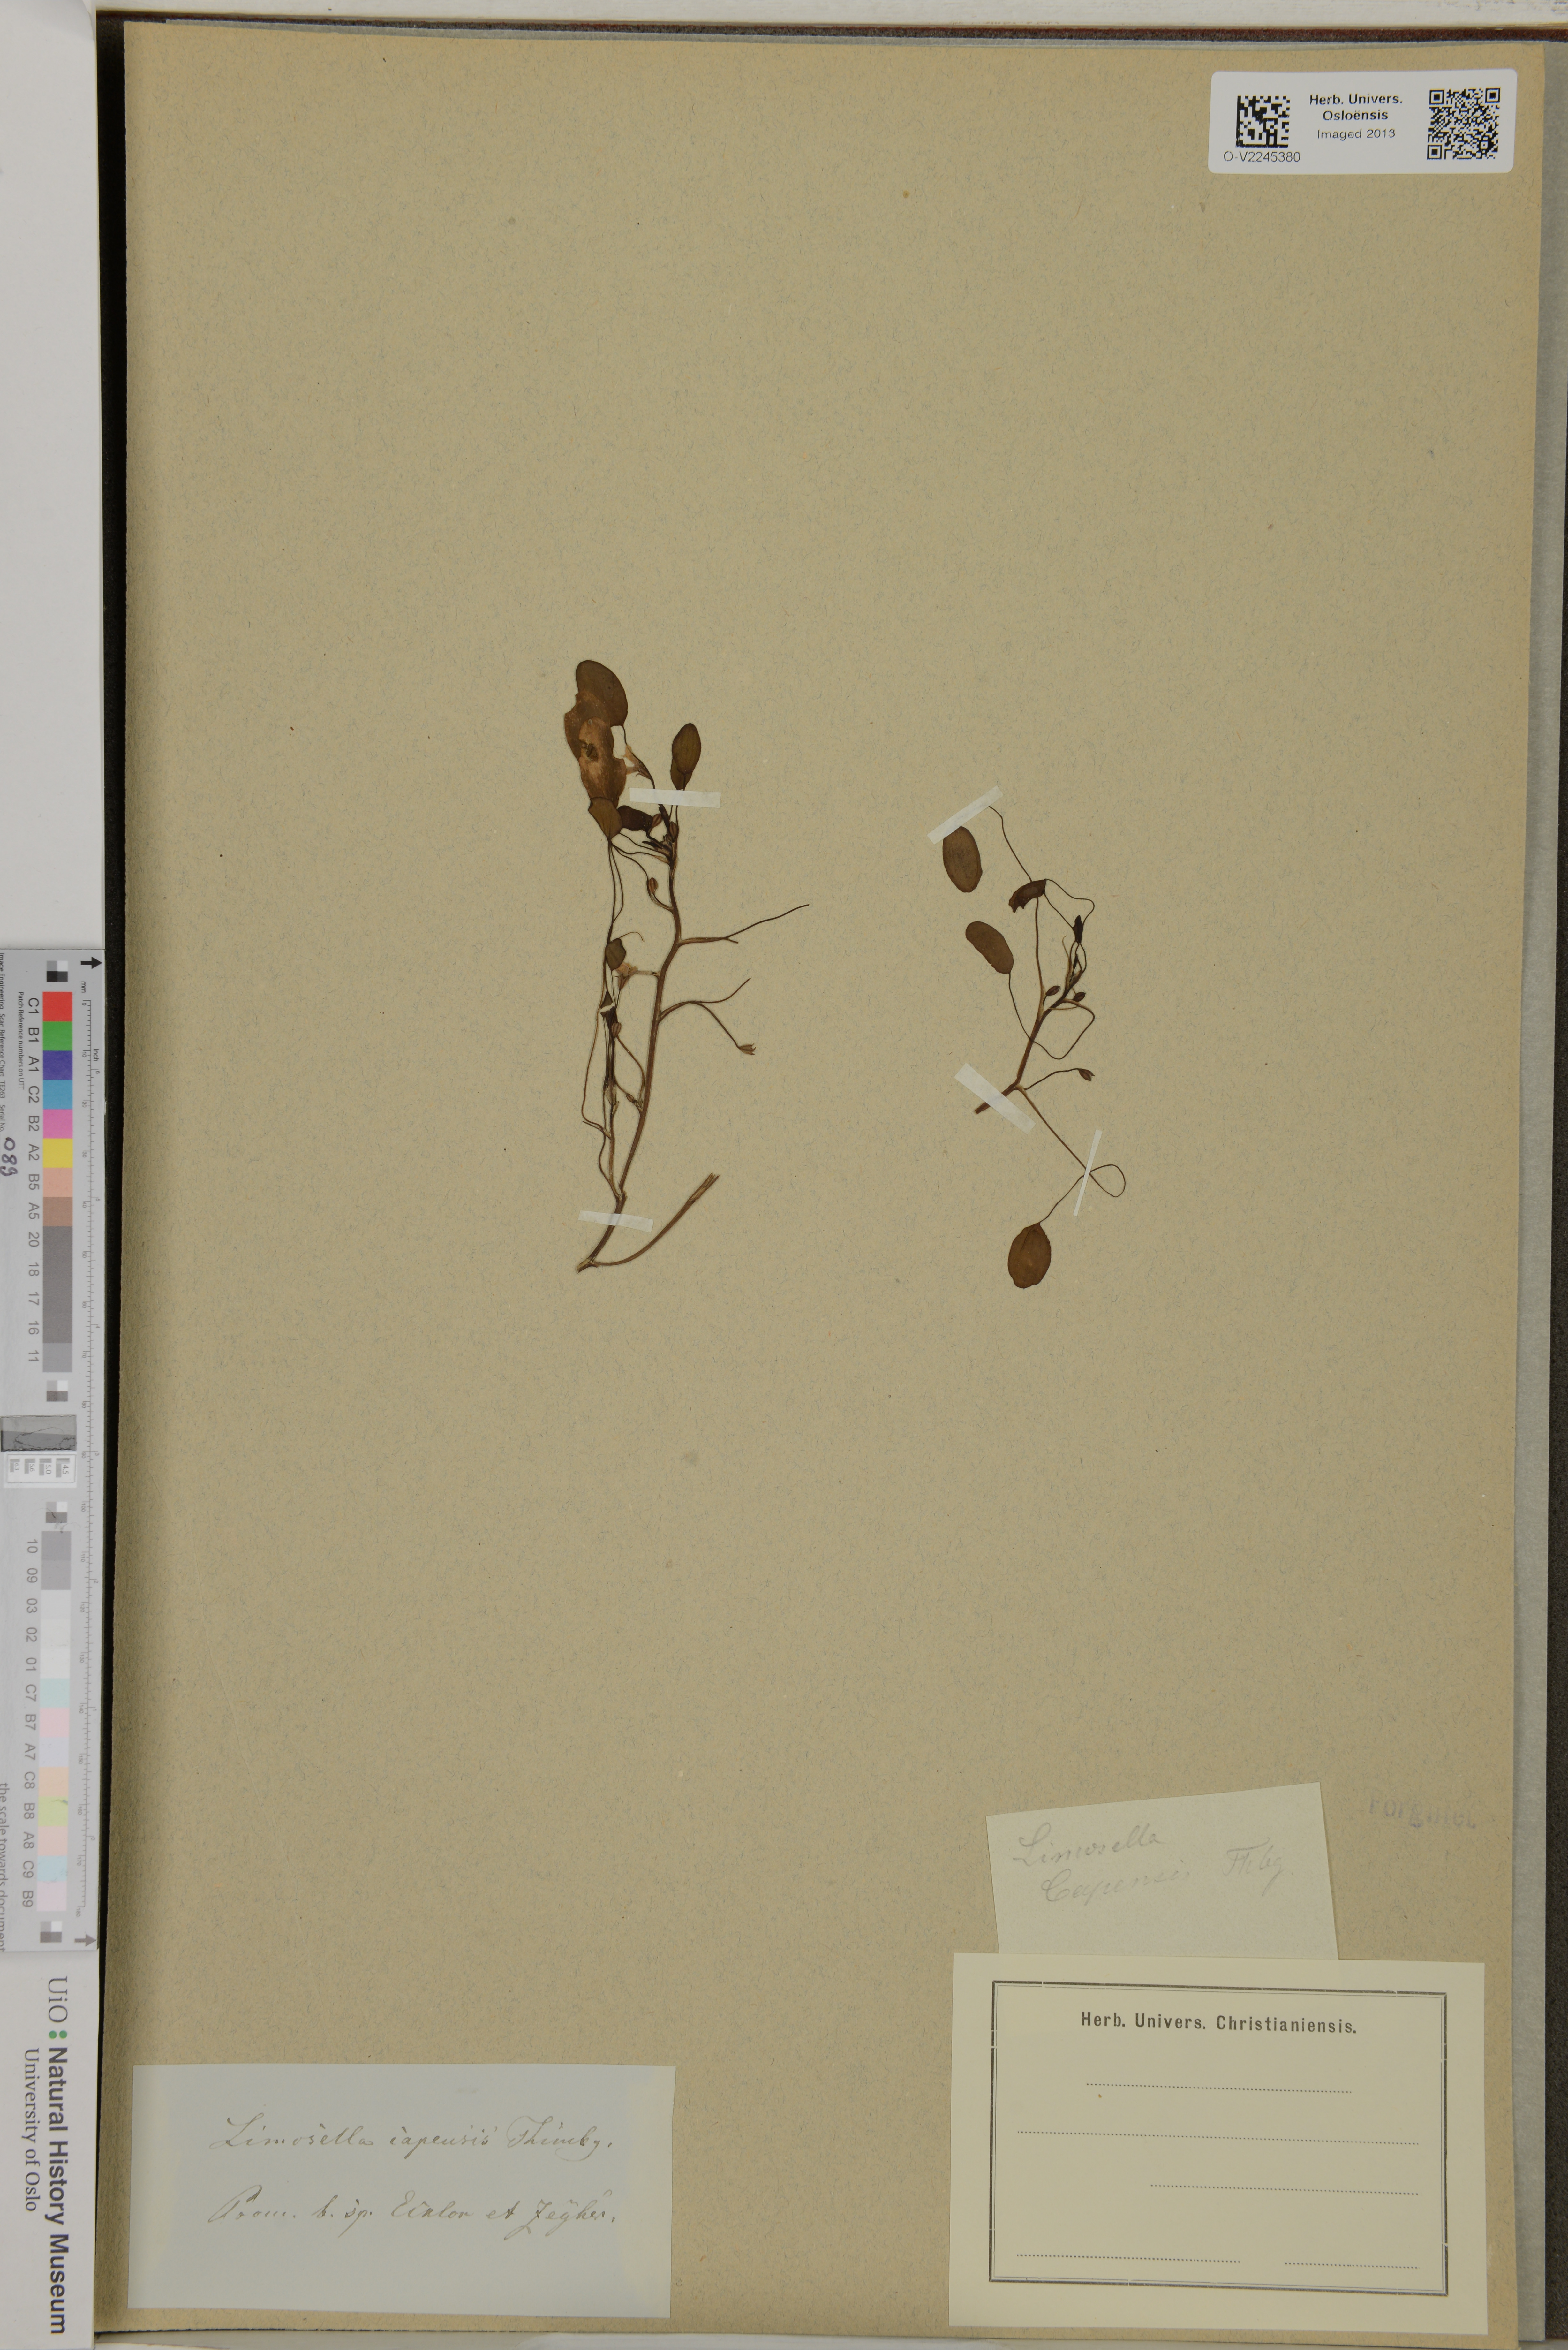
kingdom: Plantae
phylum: Tracheophyta
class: Magnoliopsida
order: Lamiales
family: Scrophulariaceae
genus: Limosella
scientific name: Limosella capensis
